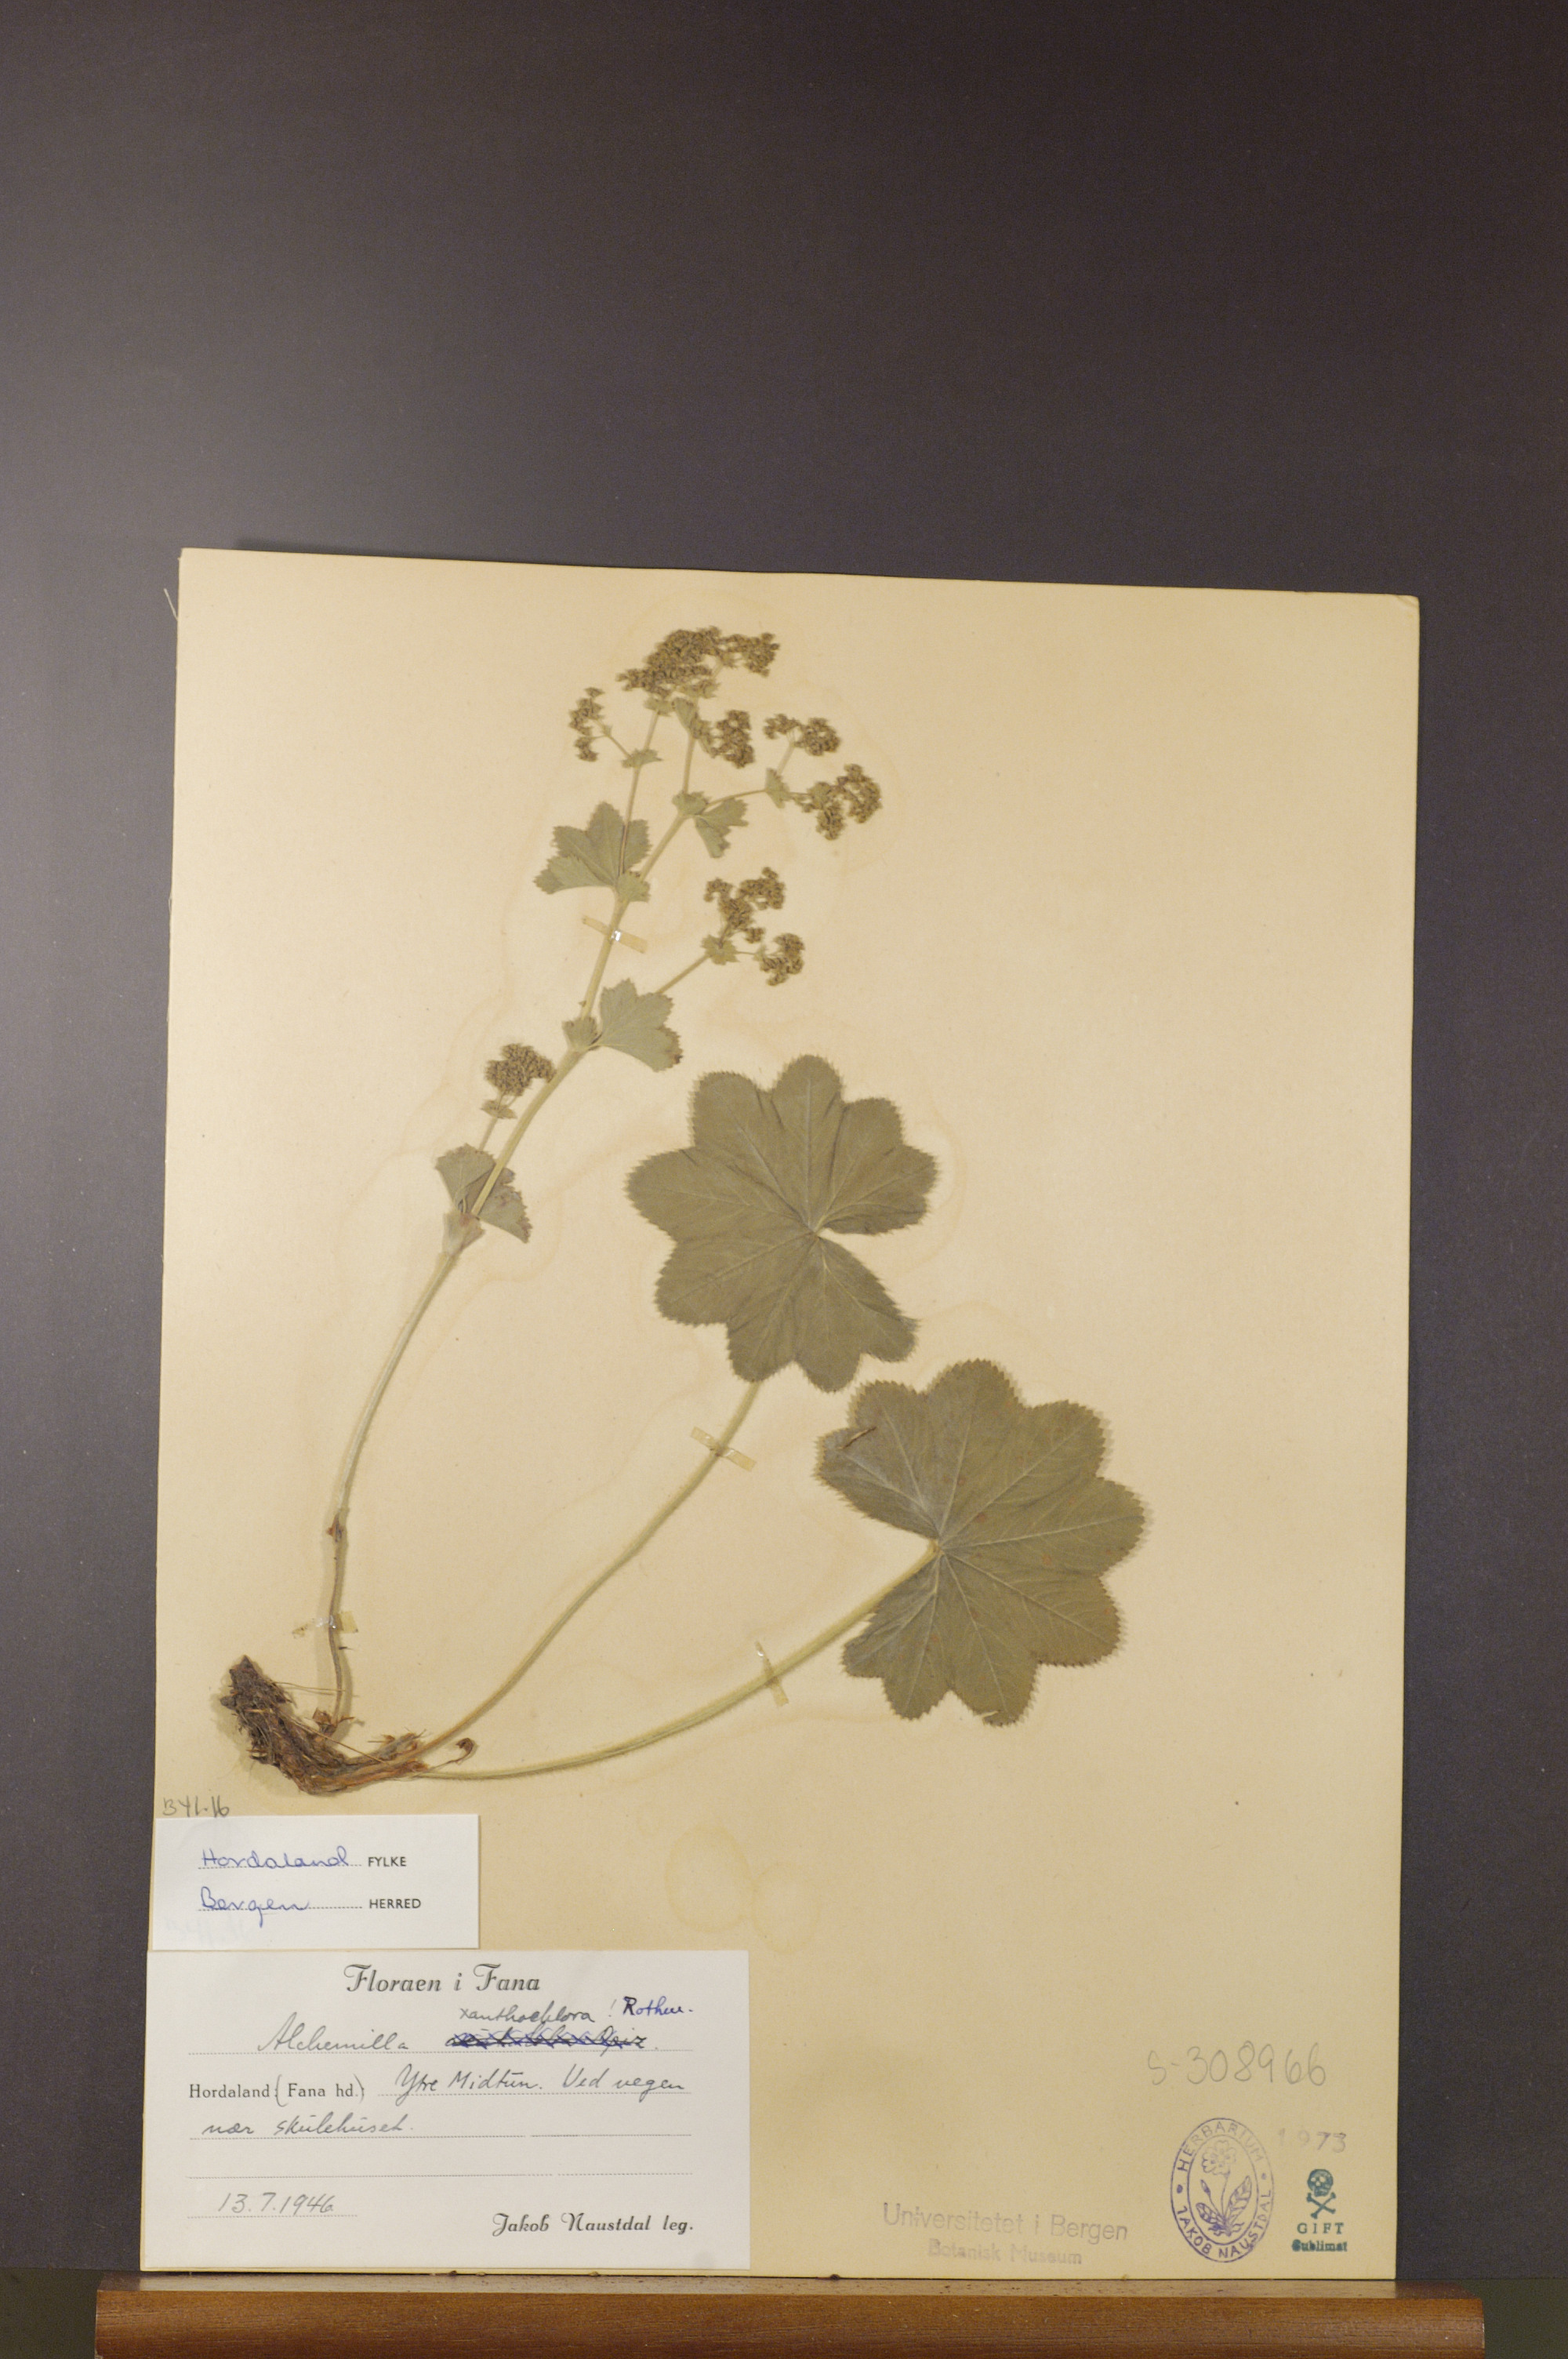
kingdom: Plantae
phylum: Tracheophyta
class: Magnoliopsida
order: Rosales
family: Rosaceae
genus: Alchemilla
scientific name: Alchemilla xanthochlora
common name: Intermediate lady's-mantle
